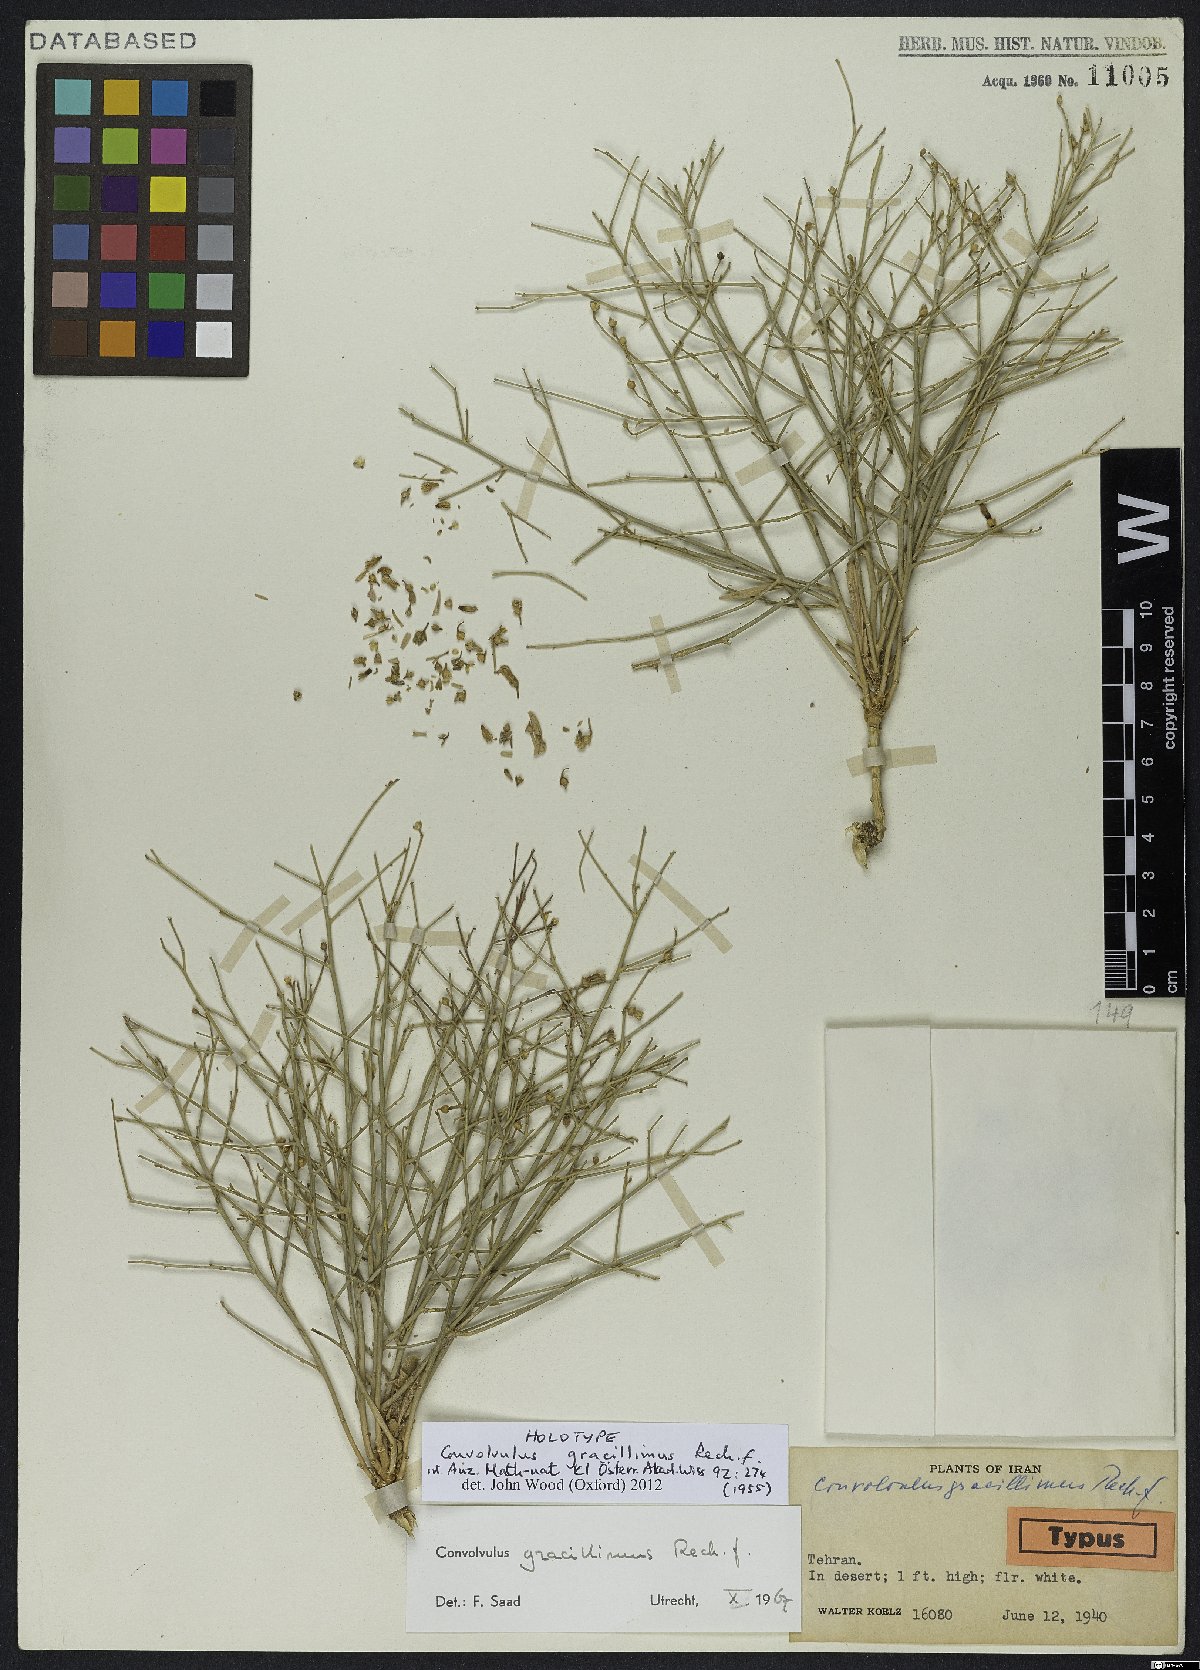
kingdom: Plantae
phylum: Tracheophyta
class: Magnoliopsida
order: Solanales
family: Convolvulaceae
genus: Convolvulus
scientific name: Convolvulus gracillimus
